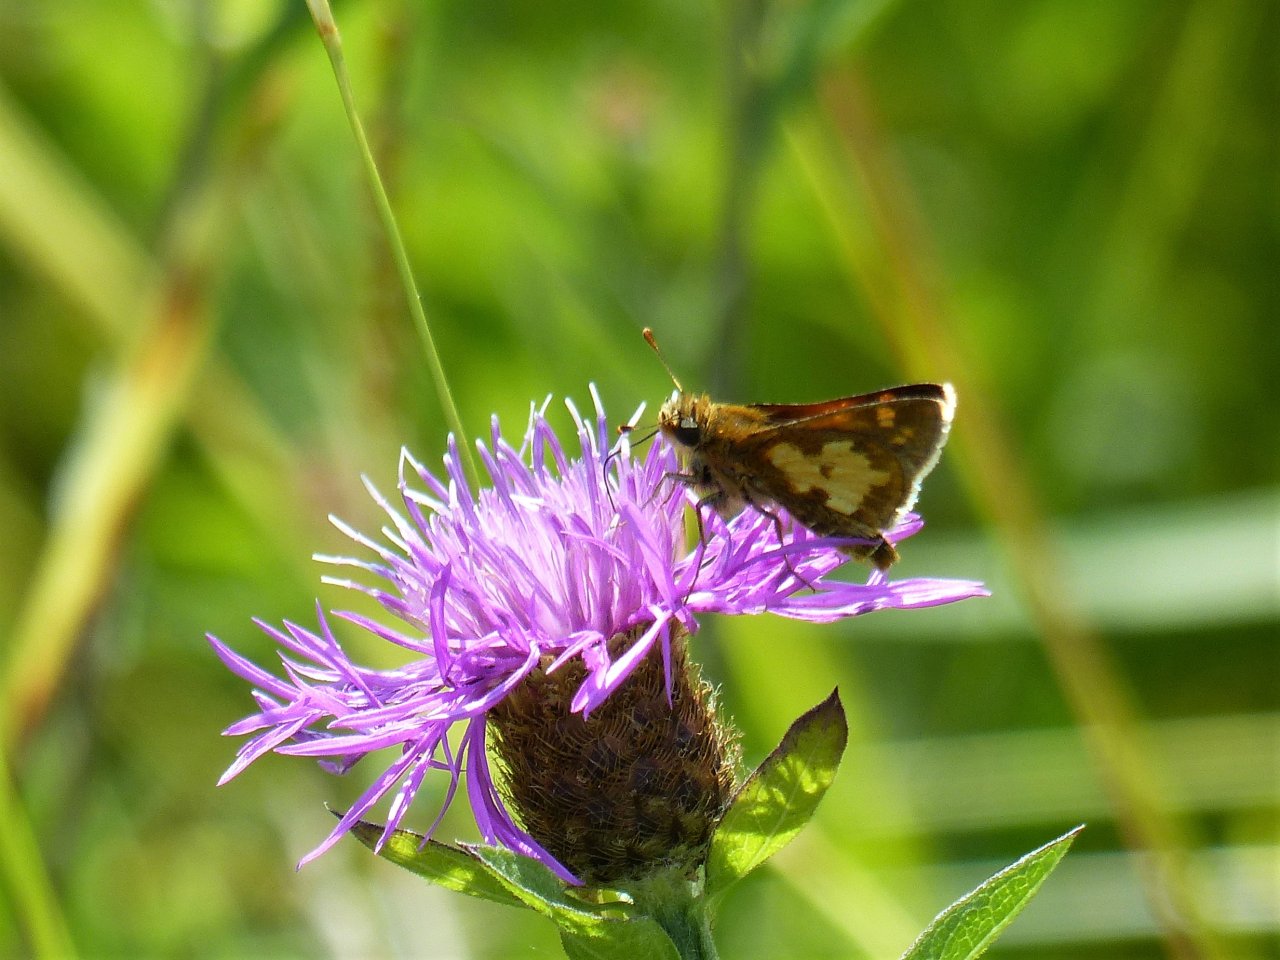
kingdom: Animalia
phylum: Arthropoda
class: Insecta
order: Lepidoptera
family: Hesperiidae
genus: Polites
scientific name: Polites coras
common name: Peck's Skipper
